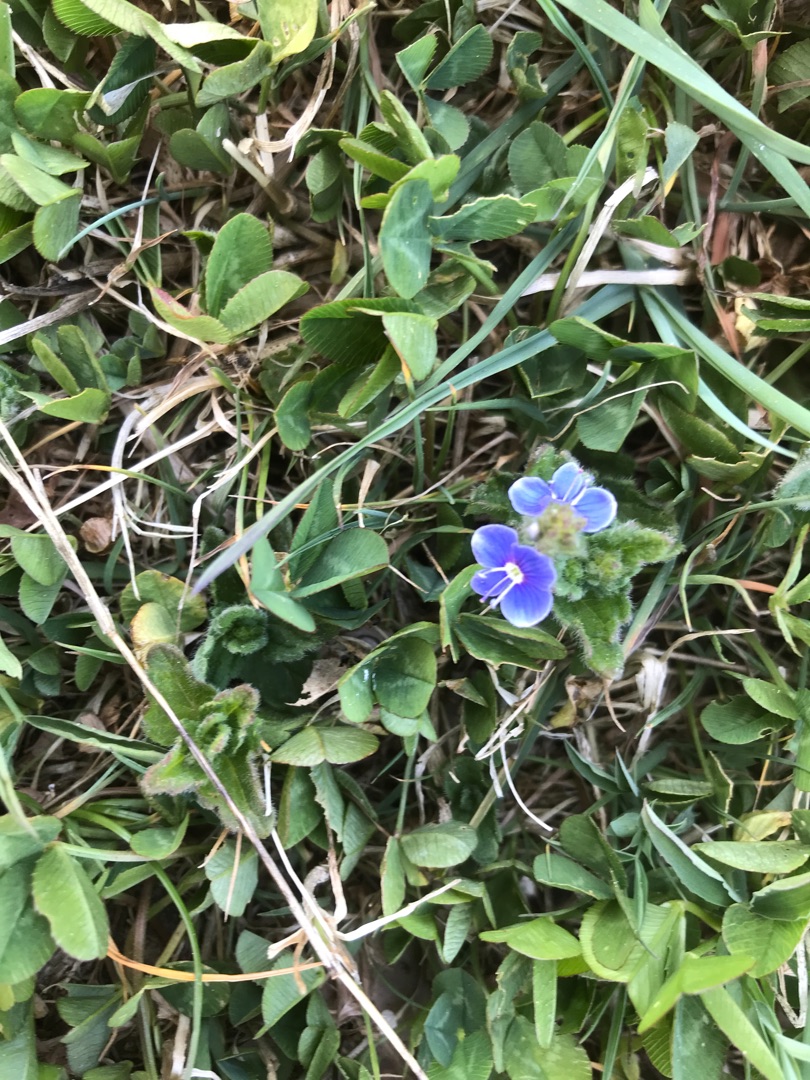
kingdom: Plantae
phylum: Tracheophyta
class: Magnoliopsida
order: Lamiales
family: Plantaginaceae
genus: Veronica
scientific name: Veronica chamaedrys
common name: Tveskægget ærenpris
